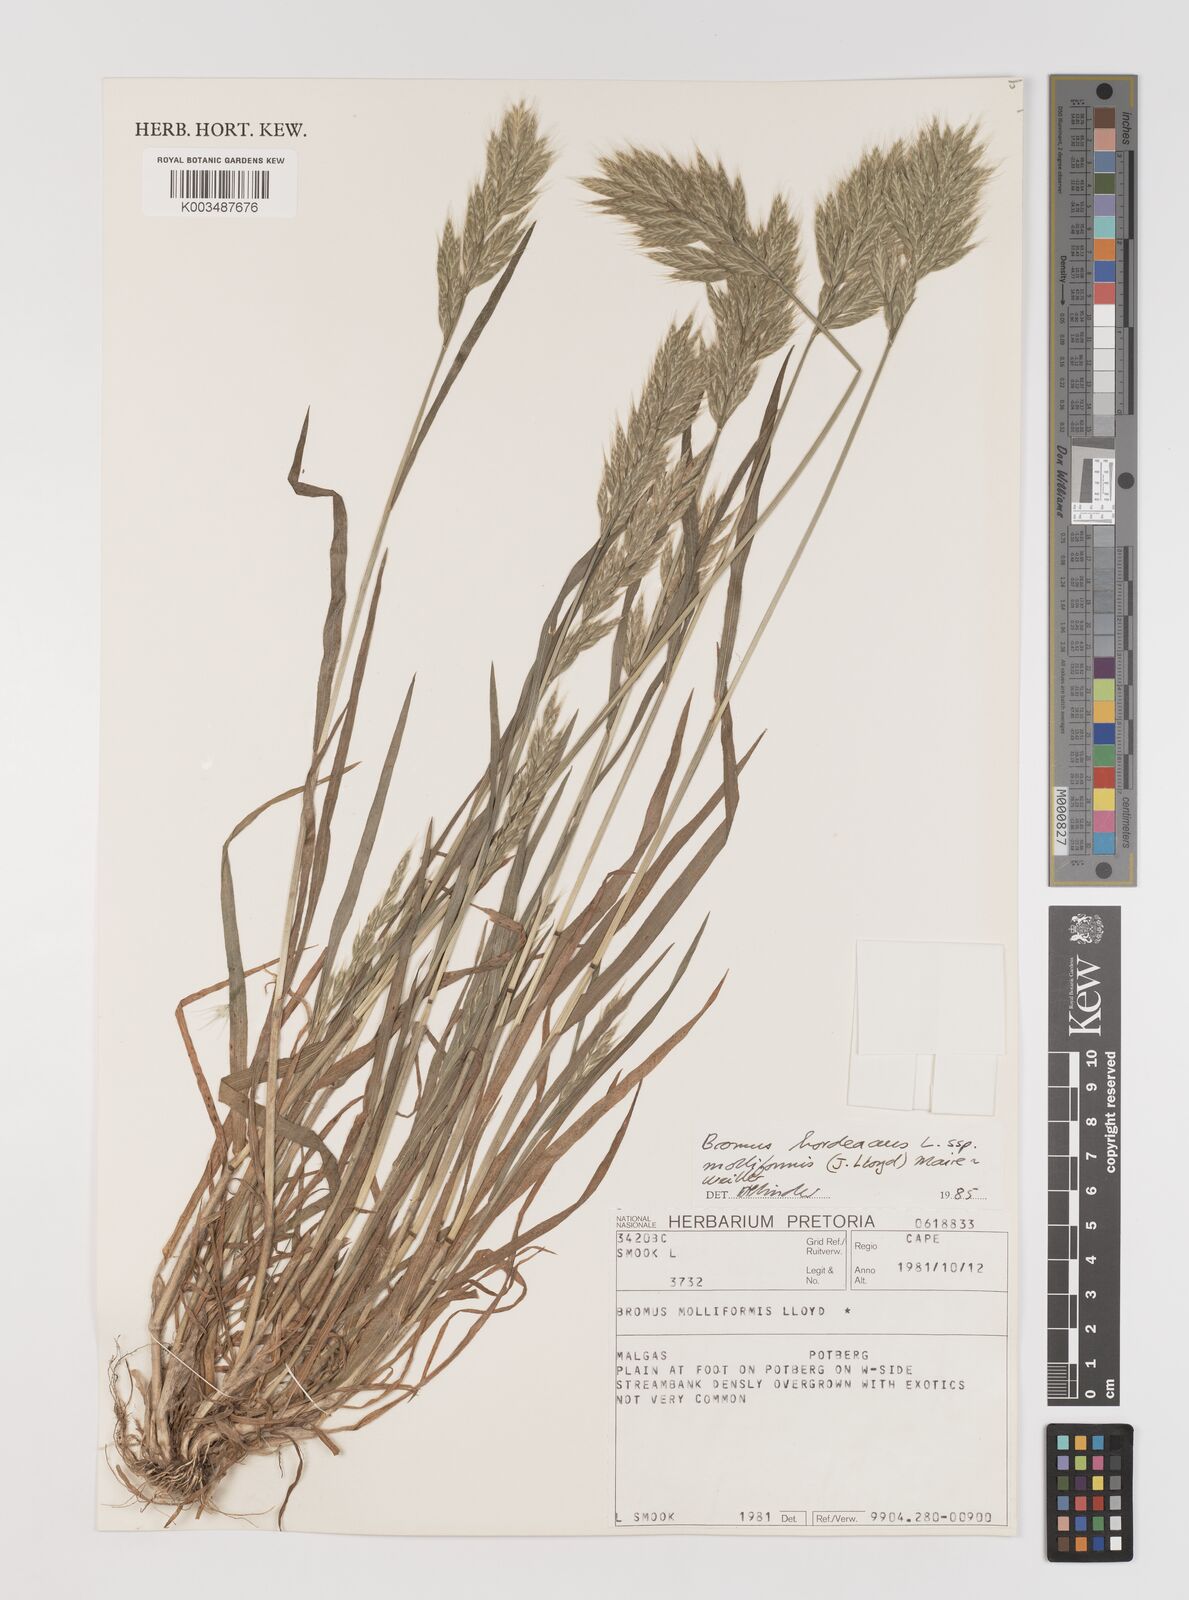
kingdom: Plantae
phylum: Tracheophyta
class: Liliopsida
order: Poales
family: Poaceae
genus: Bromus
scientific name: Bromus hordeaceus
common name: Soft brome
